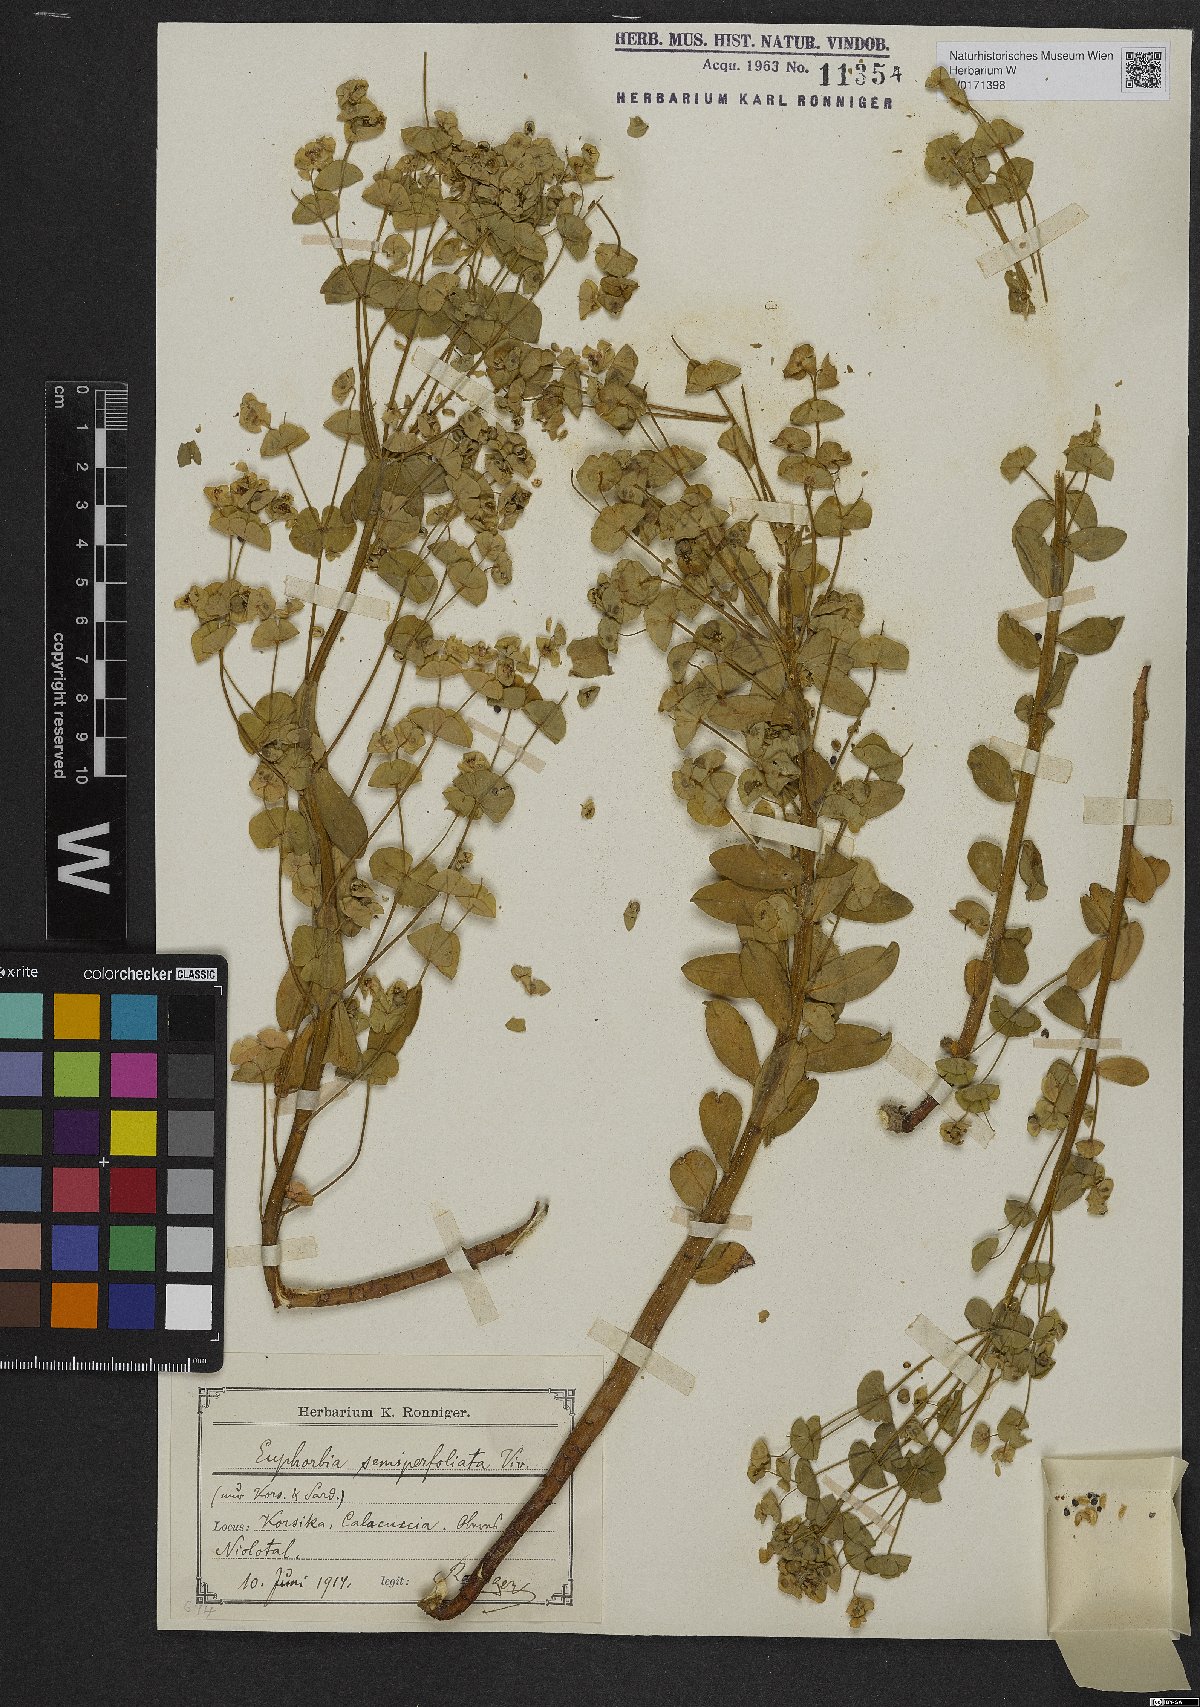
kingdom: Plantae
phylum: Tracheophyta
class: Magnoliopsida
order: Malpighiales
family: Euphorbiaceae
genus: Euphorbia
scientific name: Euphorbia semiperfoliata
